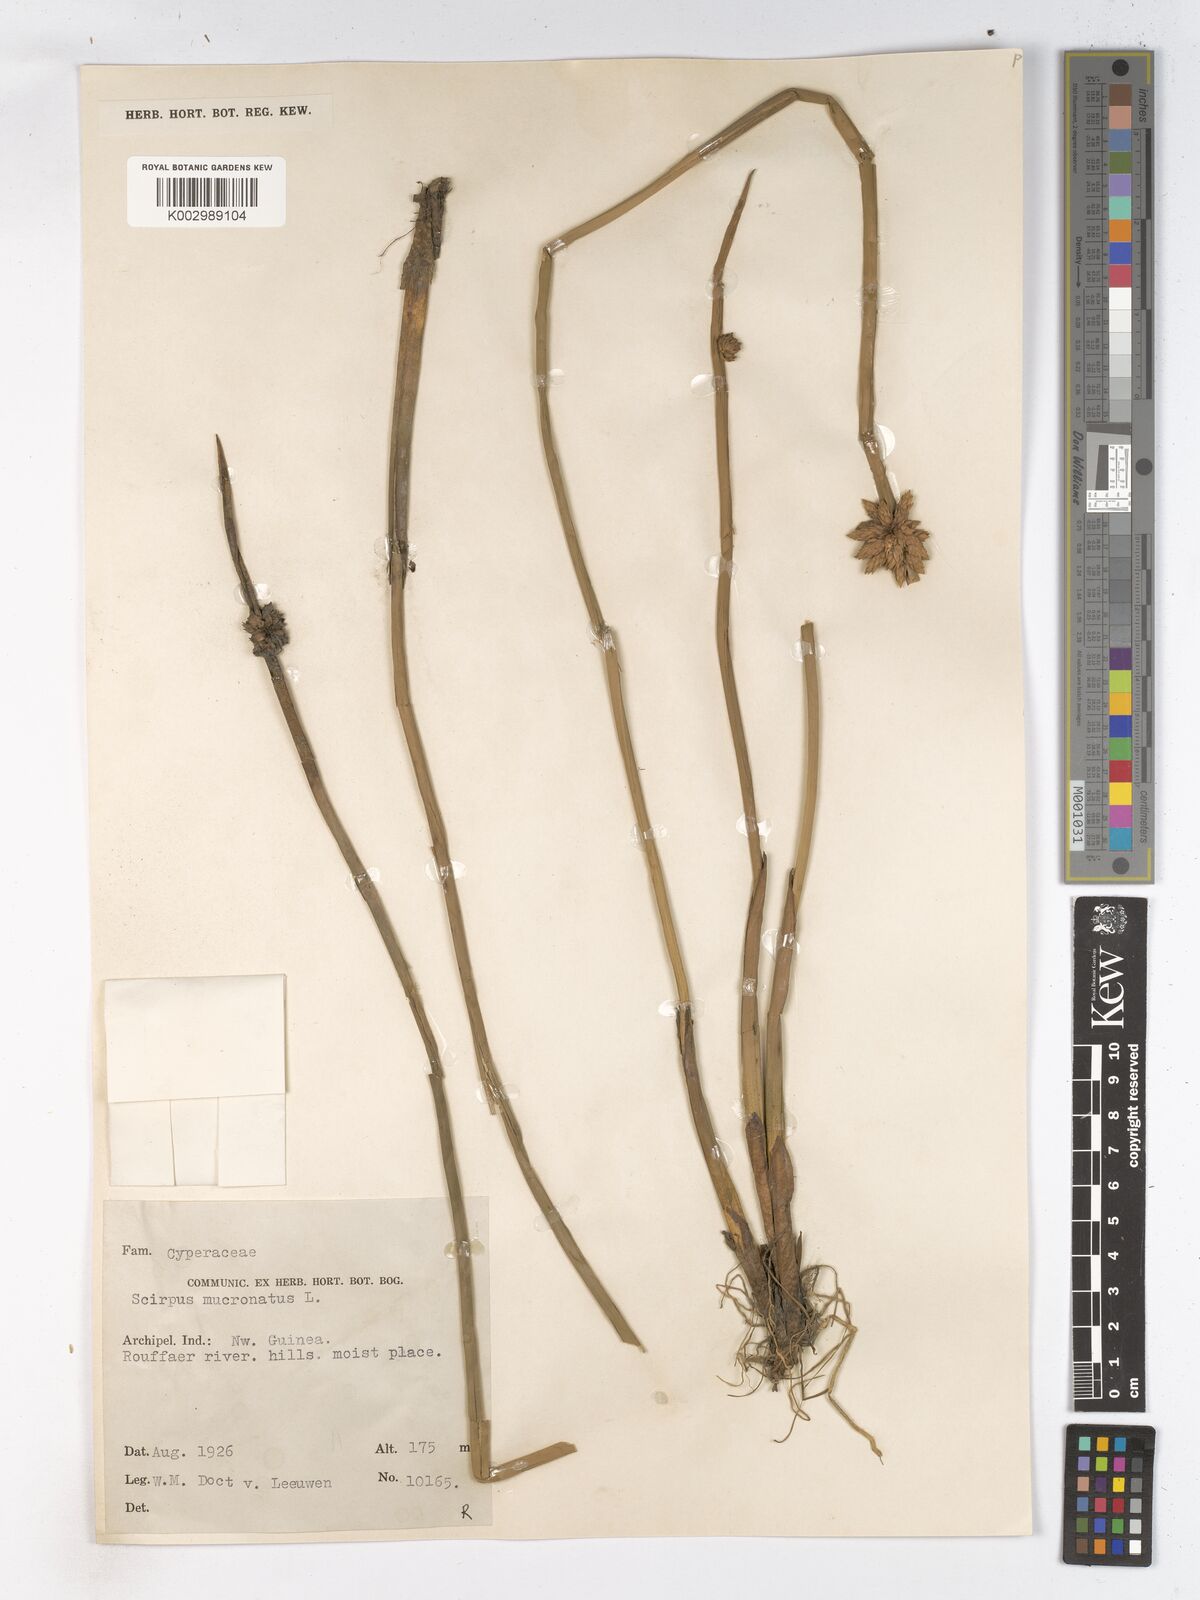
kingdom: Plantae
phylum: Tracheophyta
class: Liliopsida
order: Poales
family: Cyperaceae
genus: Schoenoplectiella
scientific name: Schoenoplectiella mucronata
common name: Bog bulrush
